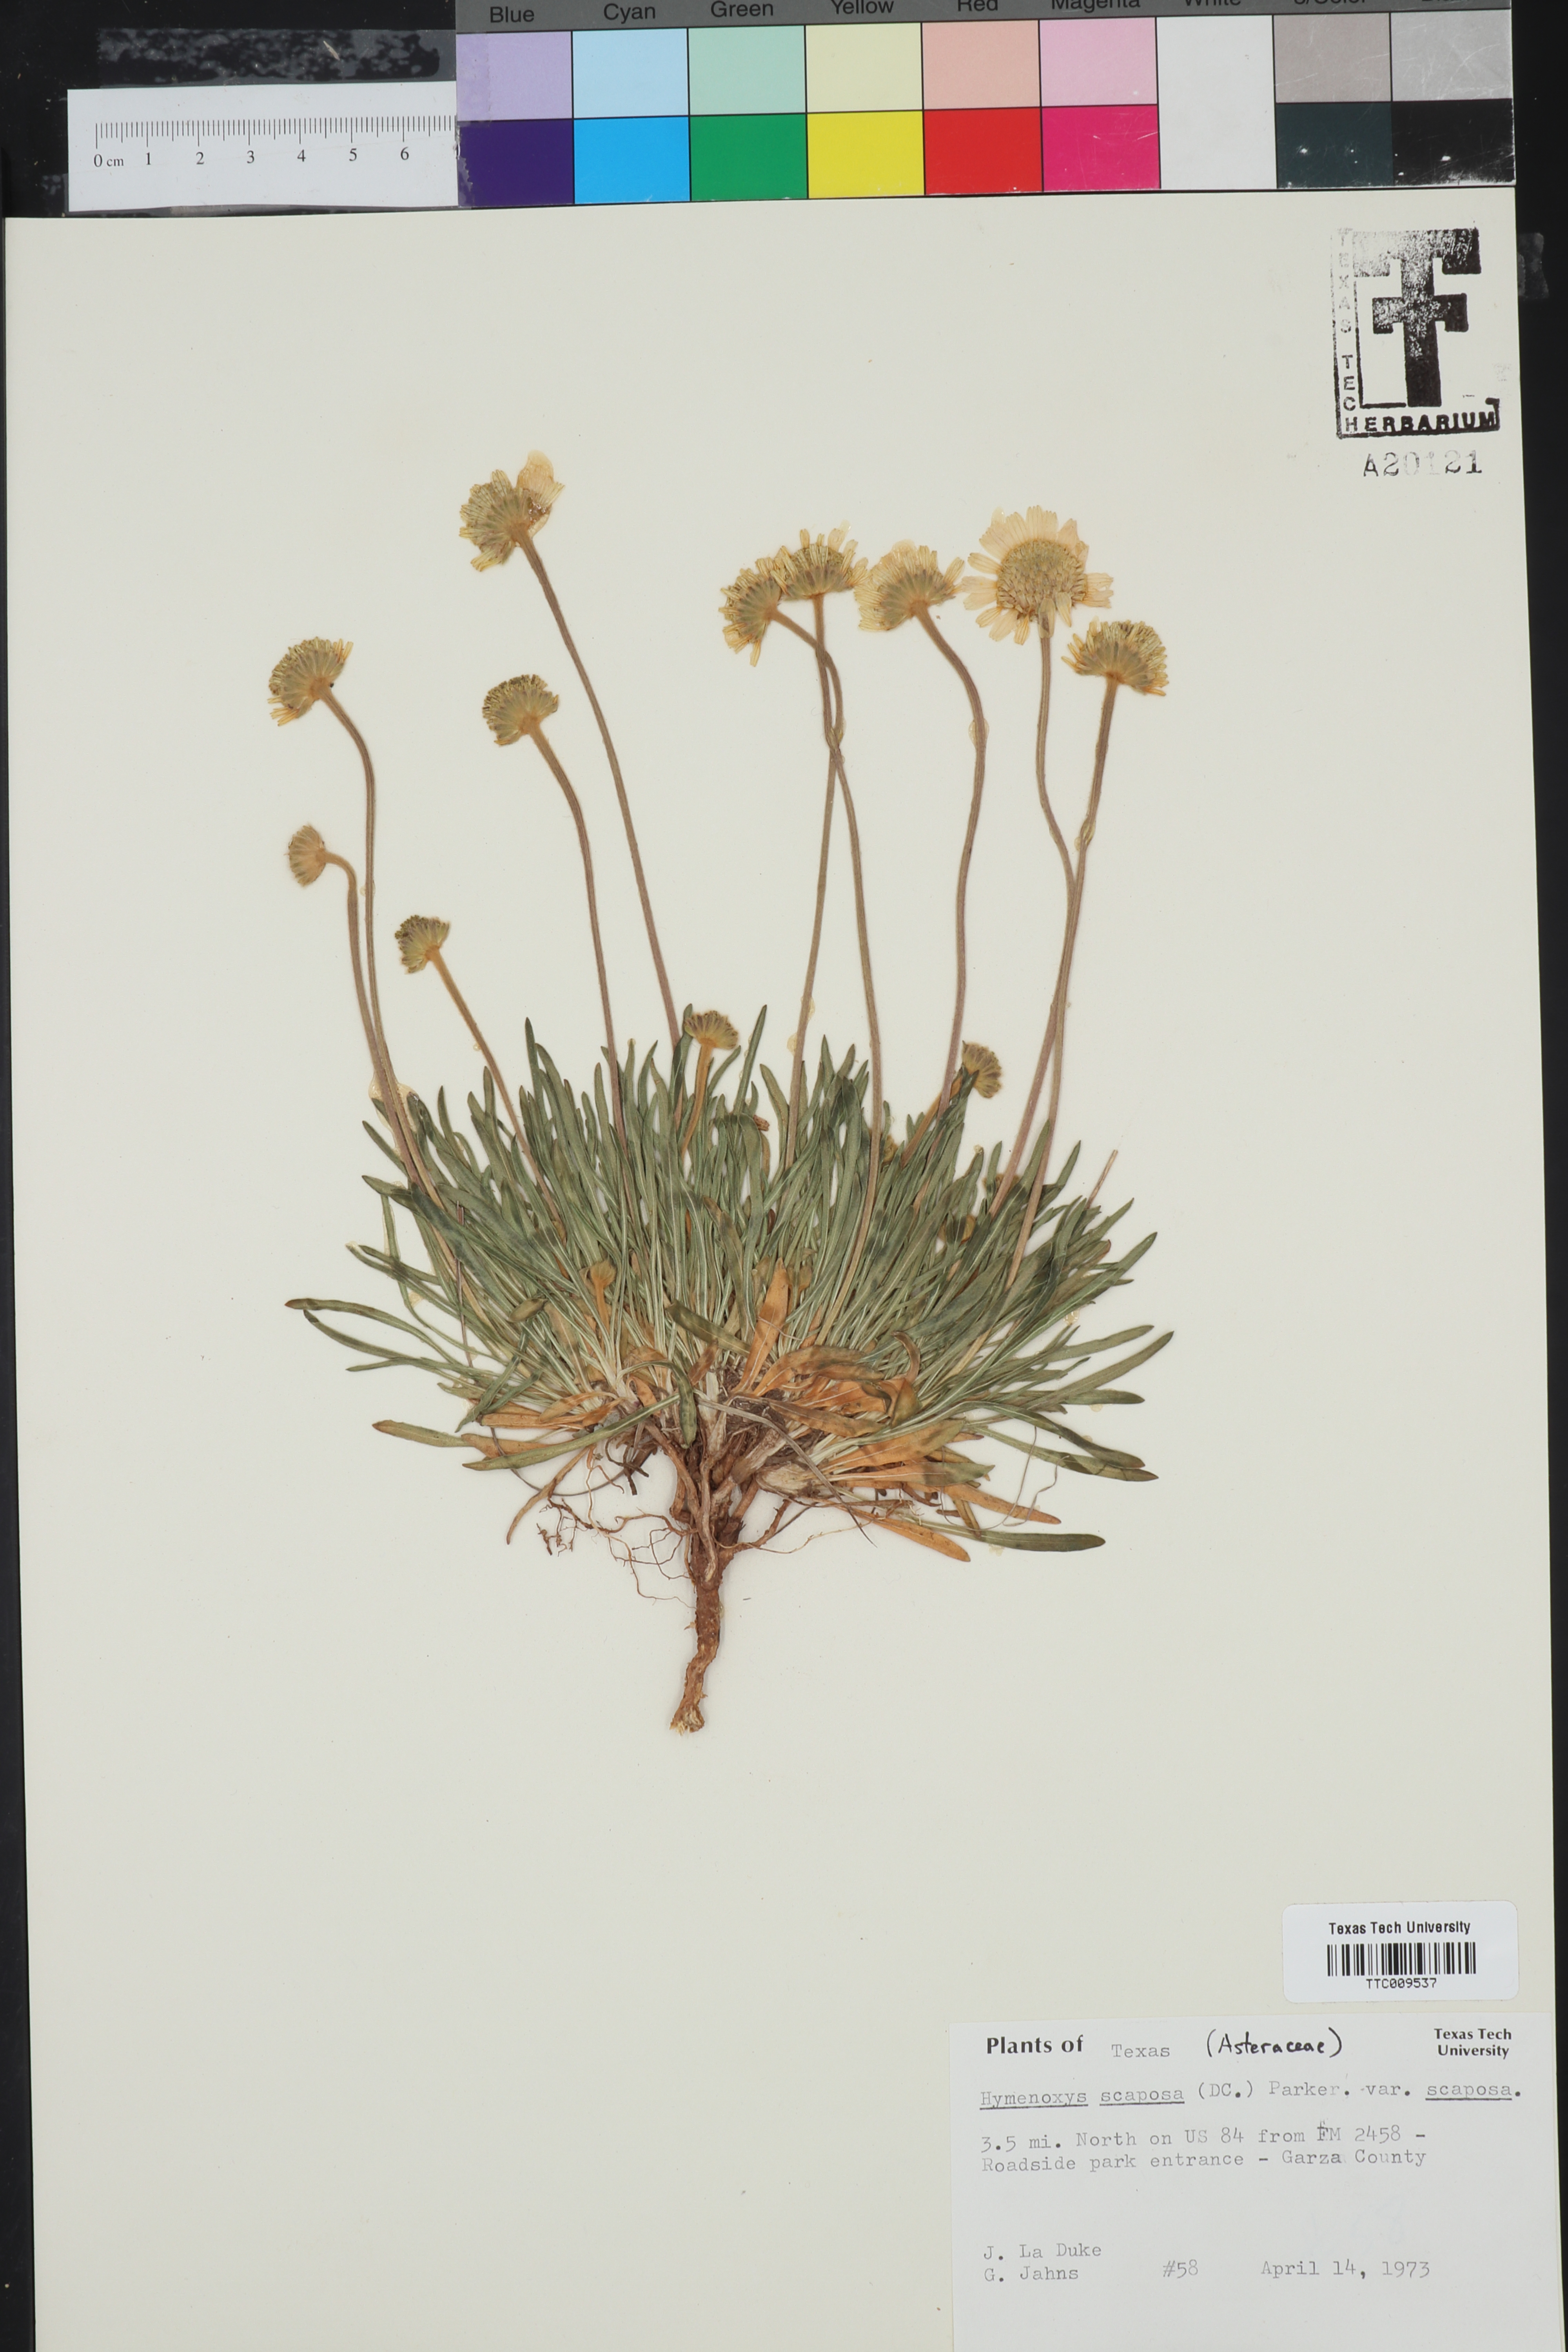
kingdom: Plantae
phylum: Tracheophyta
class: Magnoliopsida
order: Asterales
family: Asteraceae
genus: Tetraneuris
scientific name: Tetraneuris scaposa
